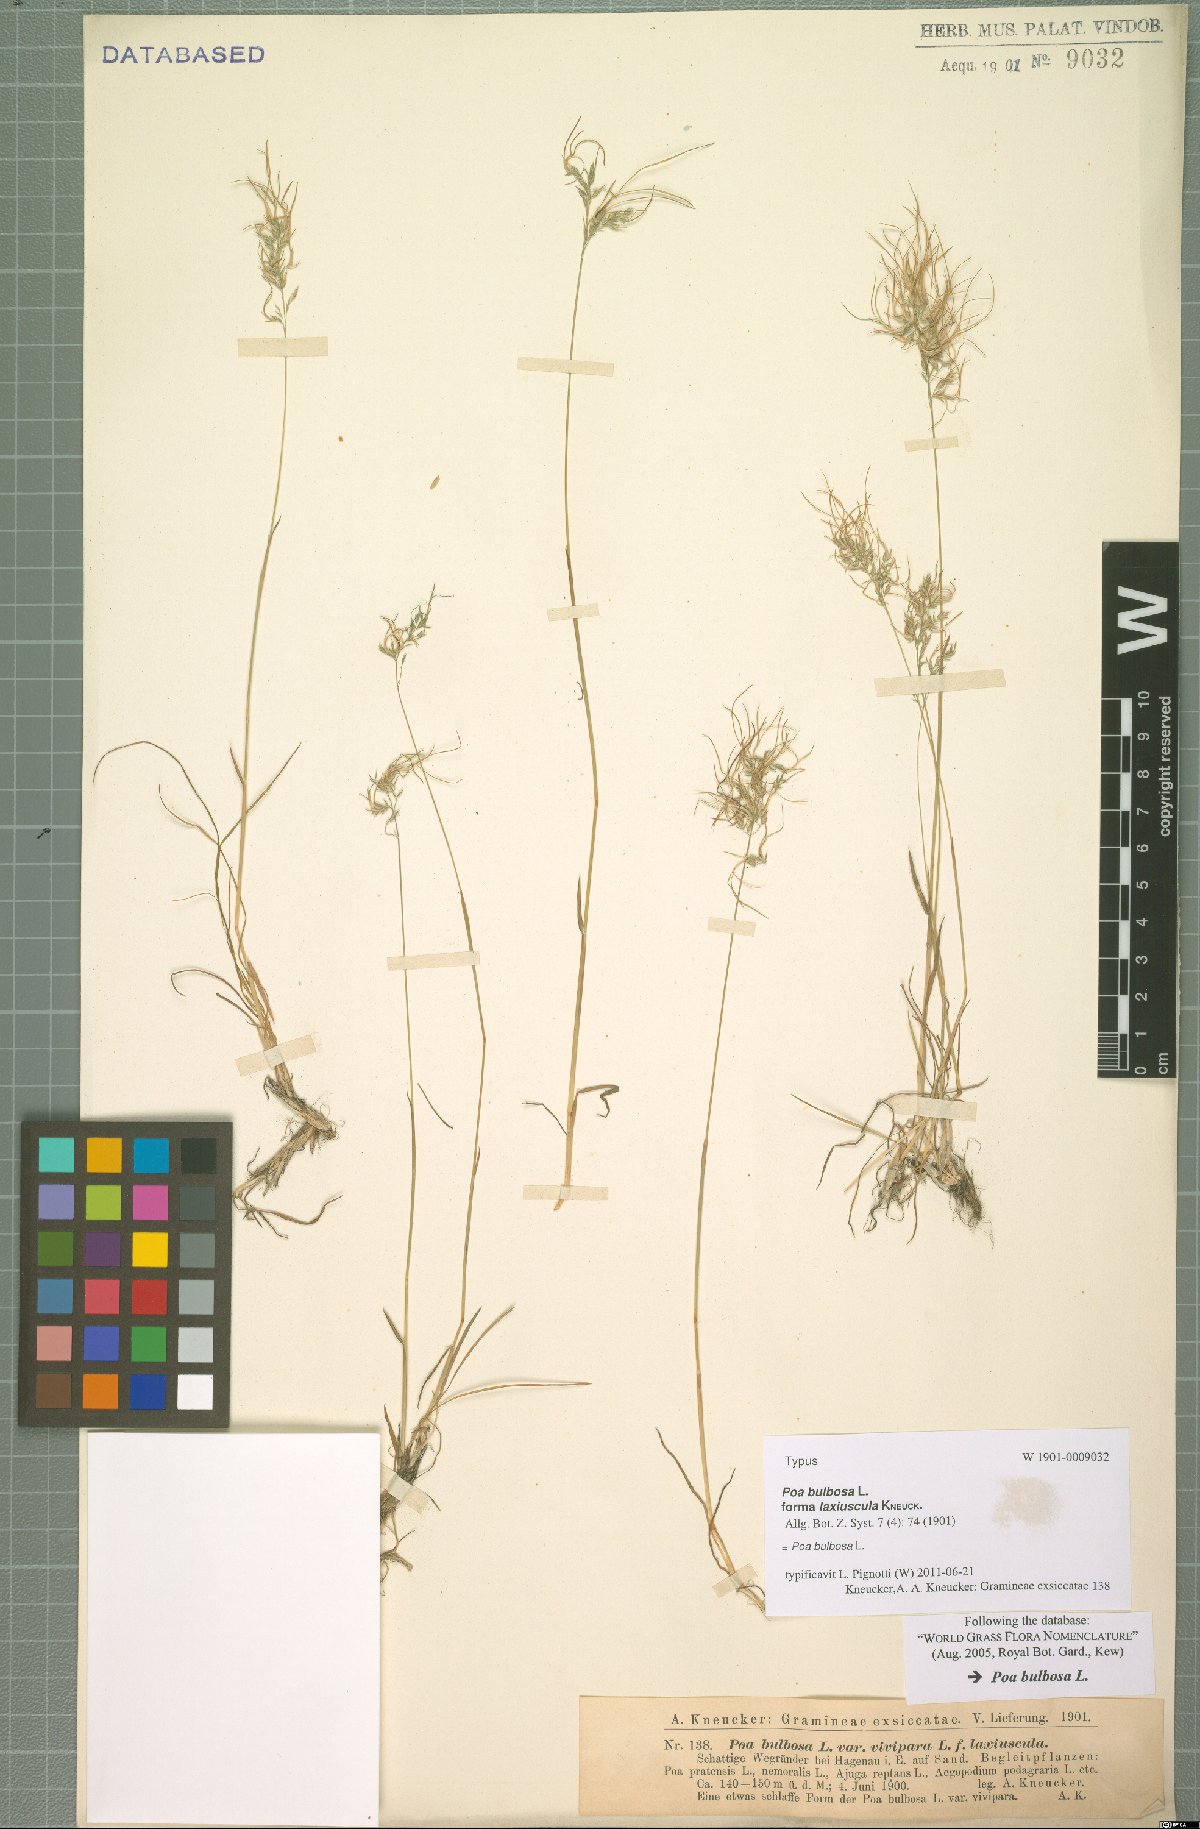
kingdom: Plantae
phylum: Tracheophyta
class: Liliopsida
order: Poales
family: Poaceae
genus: Poa
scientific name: Poa bulbosa
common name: Bulbous bluegrass
